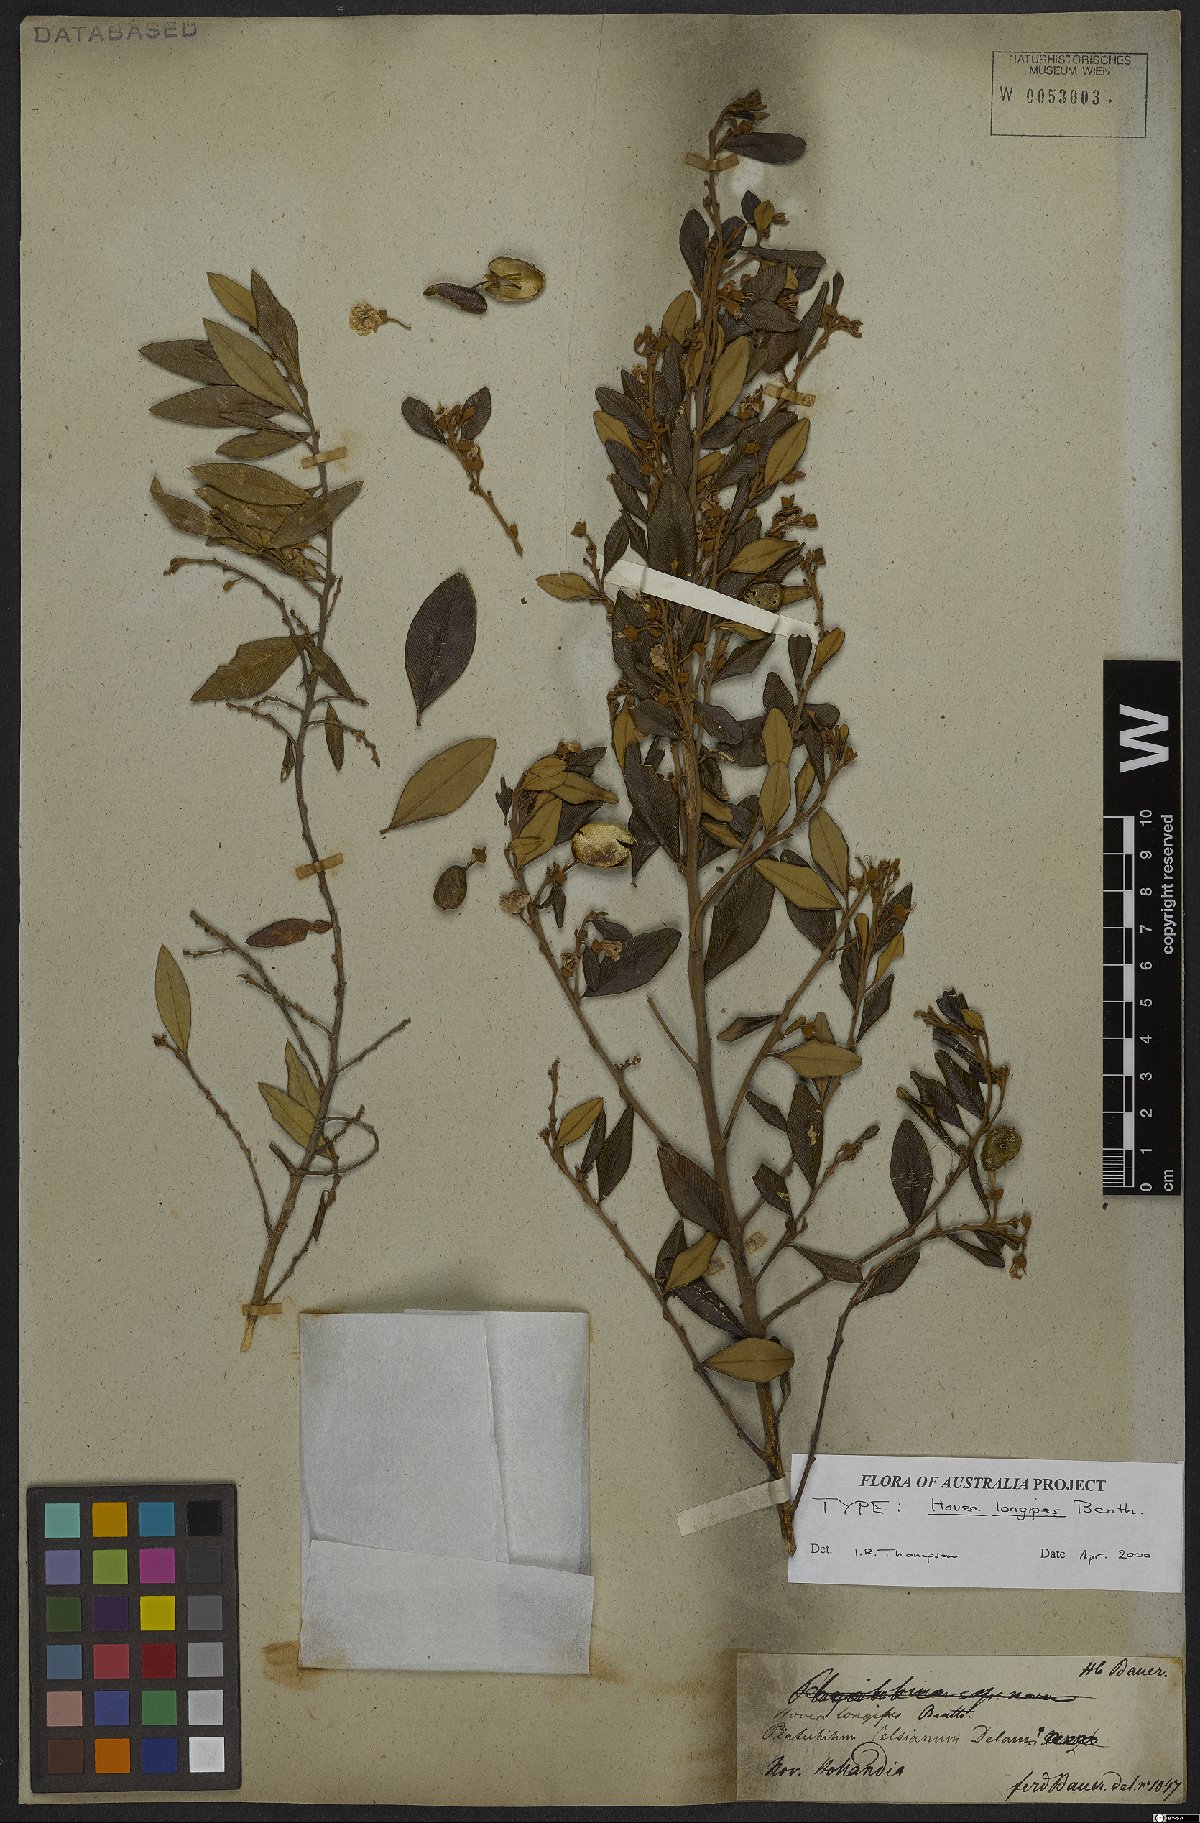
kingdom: Plantae
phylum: Tracheophyta
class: Magnoliopsida
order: Fabales
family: Fabaceae
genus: Hovea
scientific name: Hovea longipes
